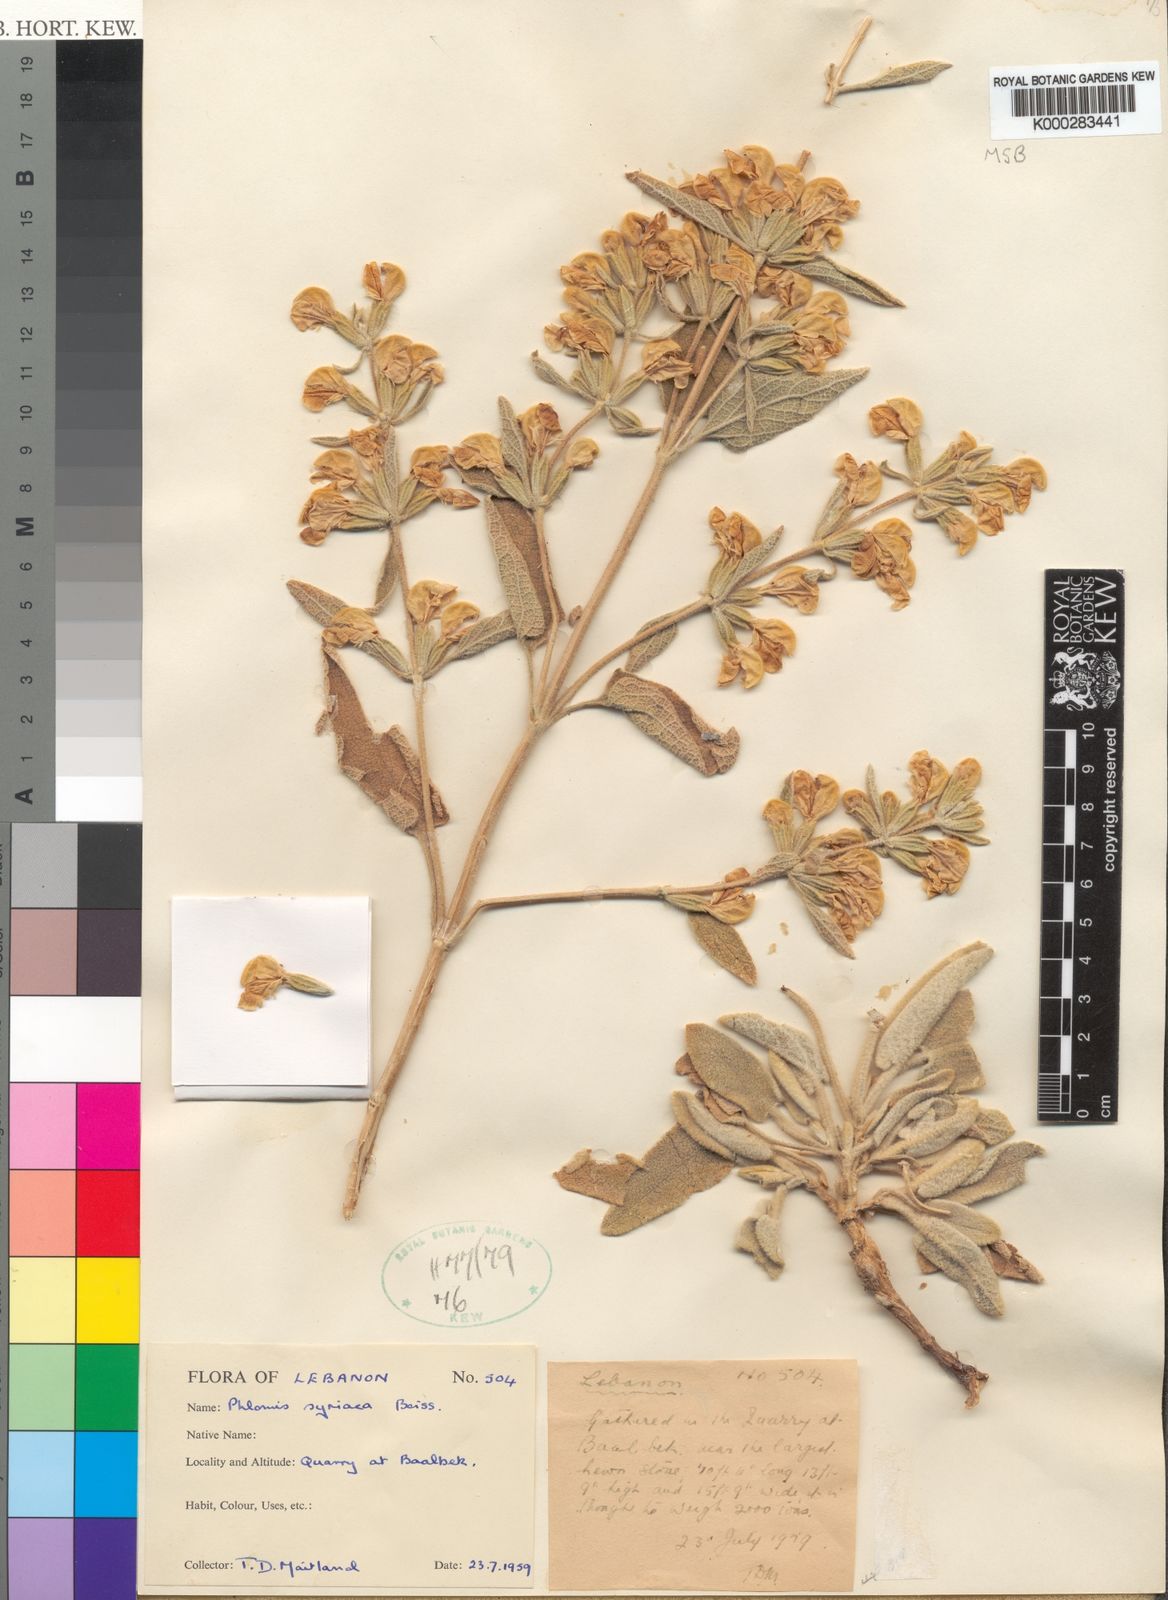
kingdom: Plantae
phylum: Tracheophyta
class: Magnoliopsida
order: Lamiales
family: Lamiaceae
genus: Phlomis
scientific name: Phlomis syriaca
